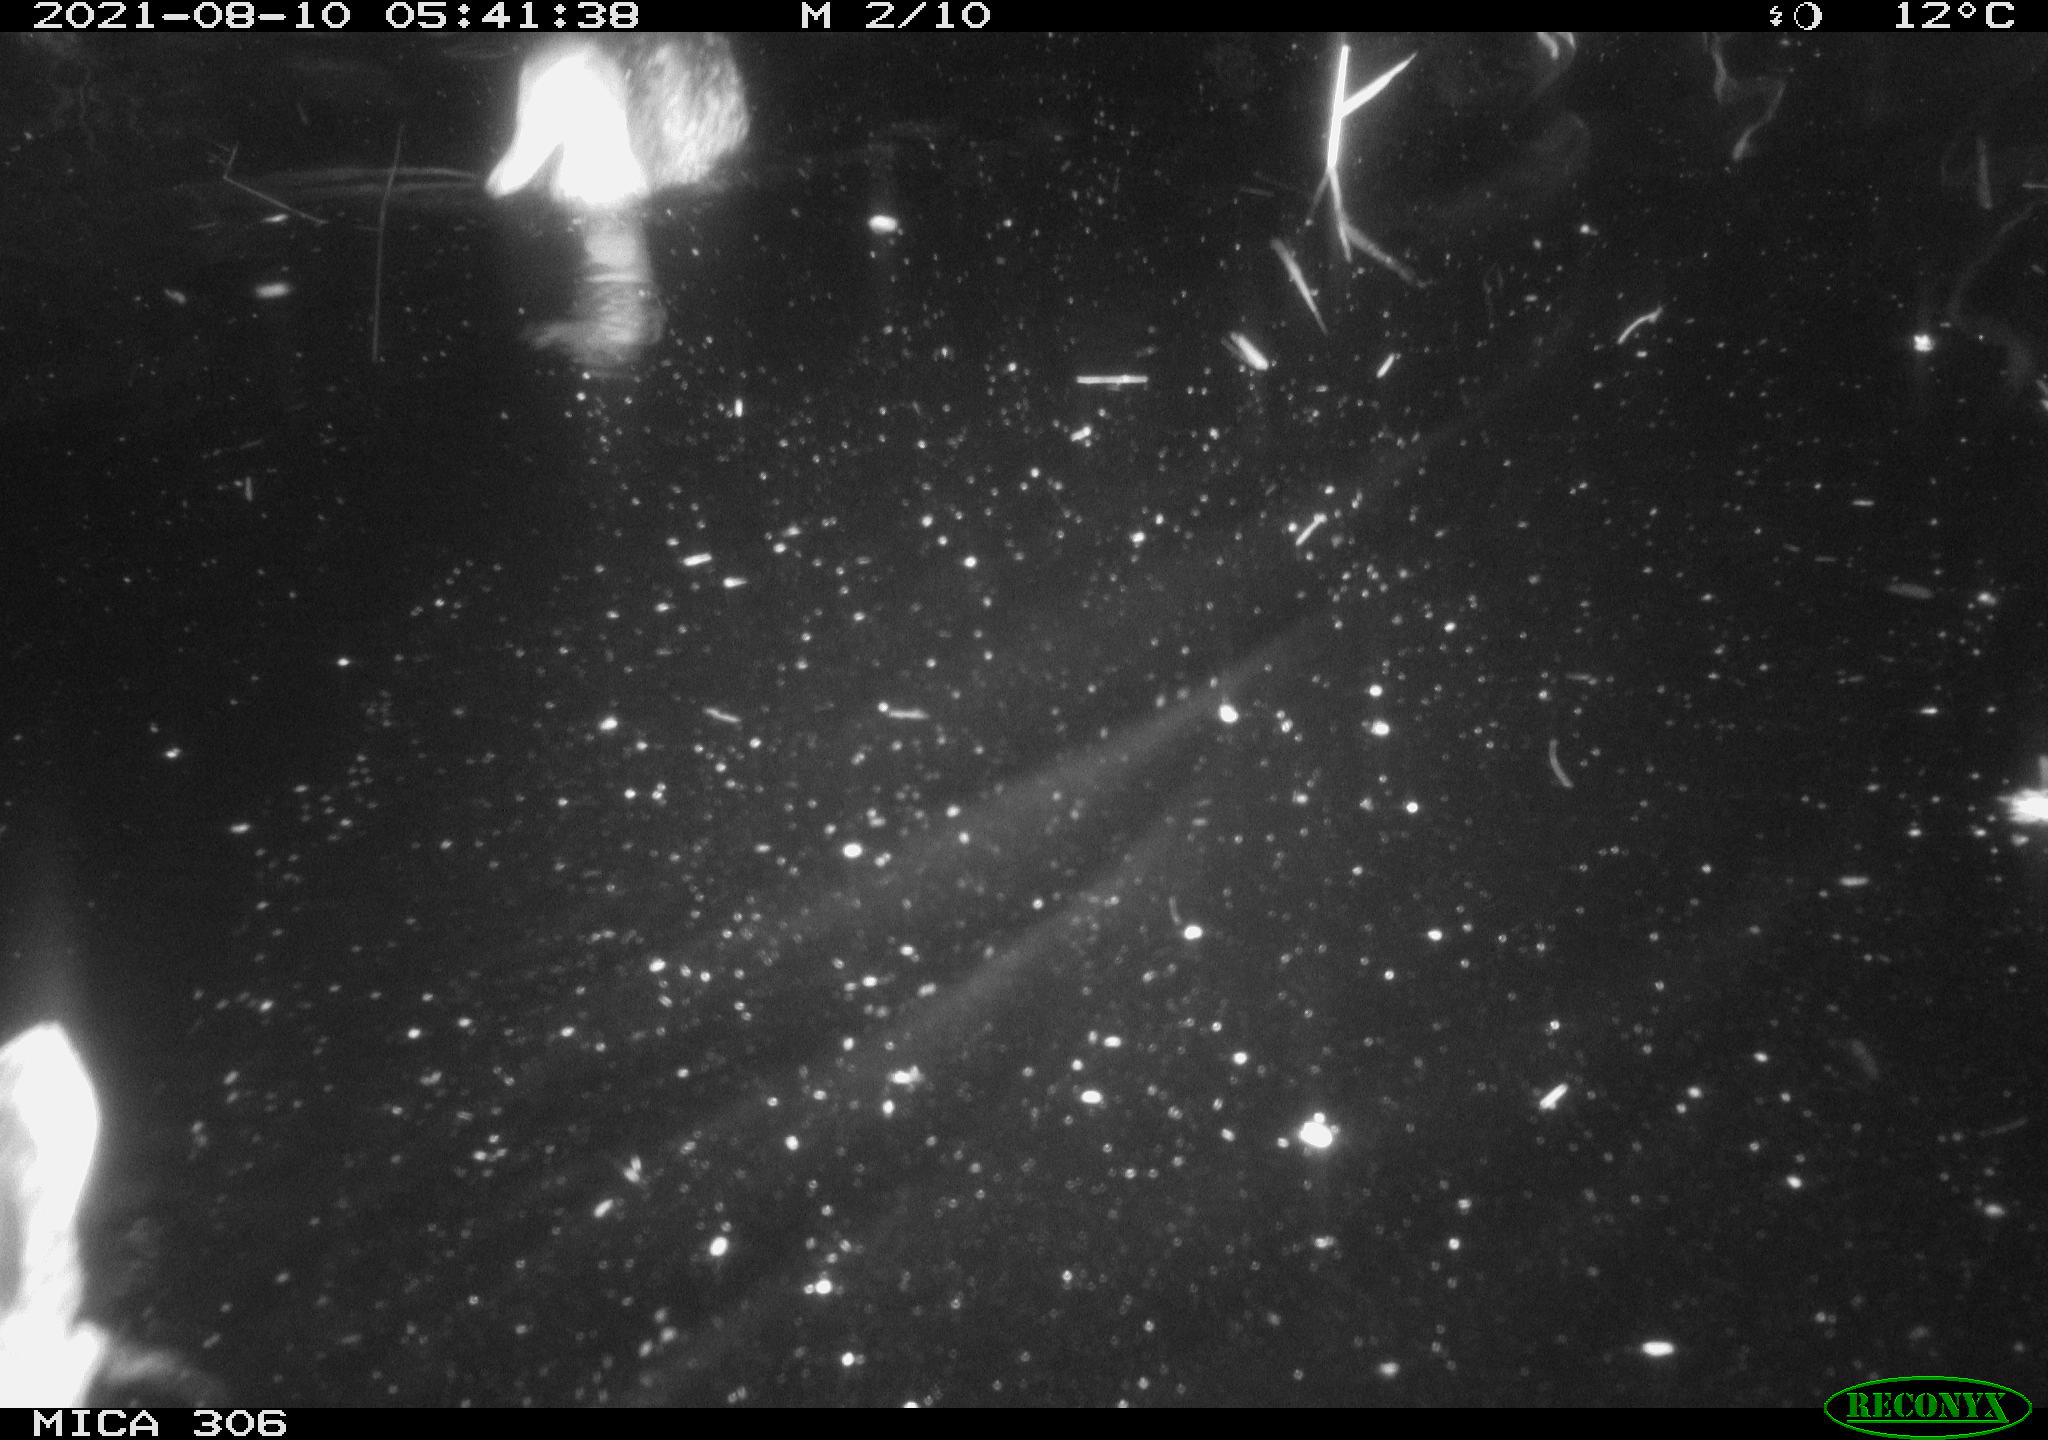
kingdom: Animalia
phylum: Chordata
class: Aves
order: Anseriformes
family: Anatidae
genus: Anas
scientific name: Anas platyrhynchos
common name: Mallard
